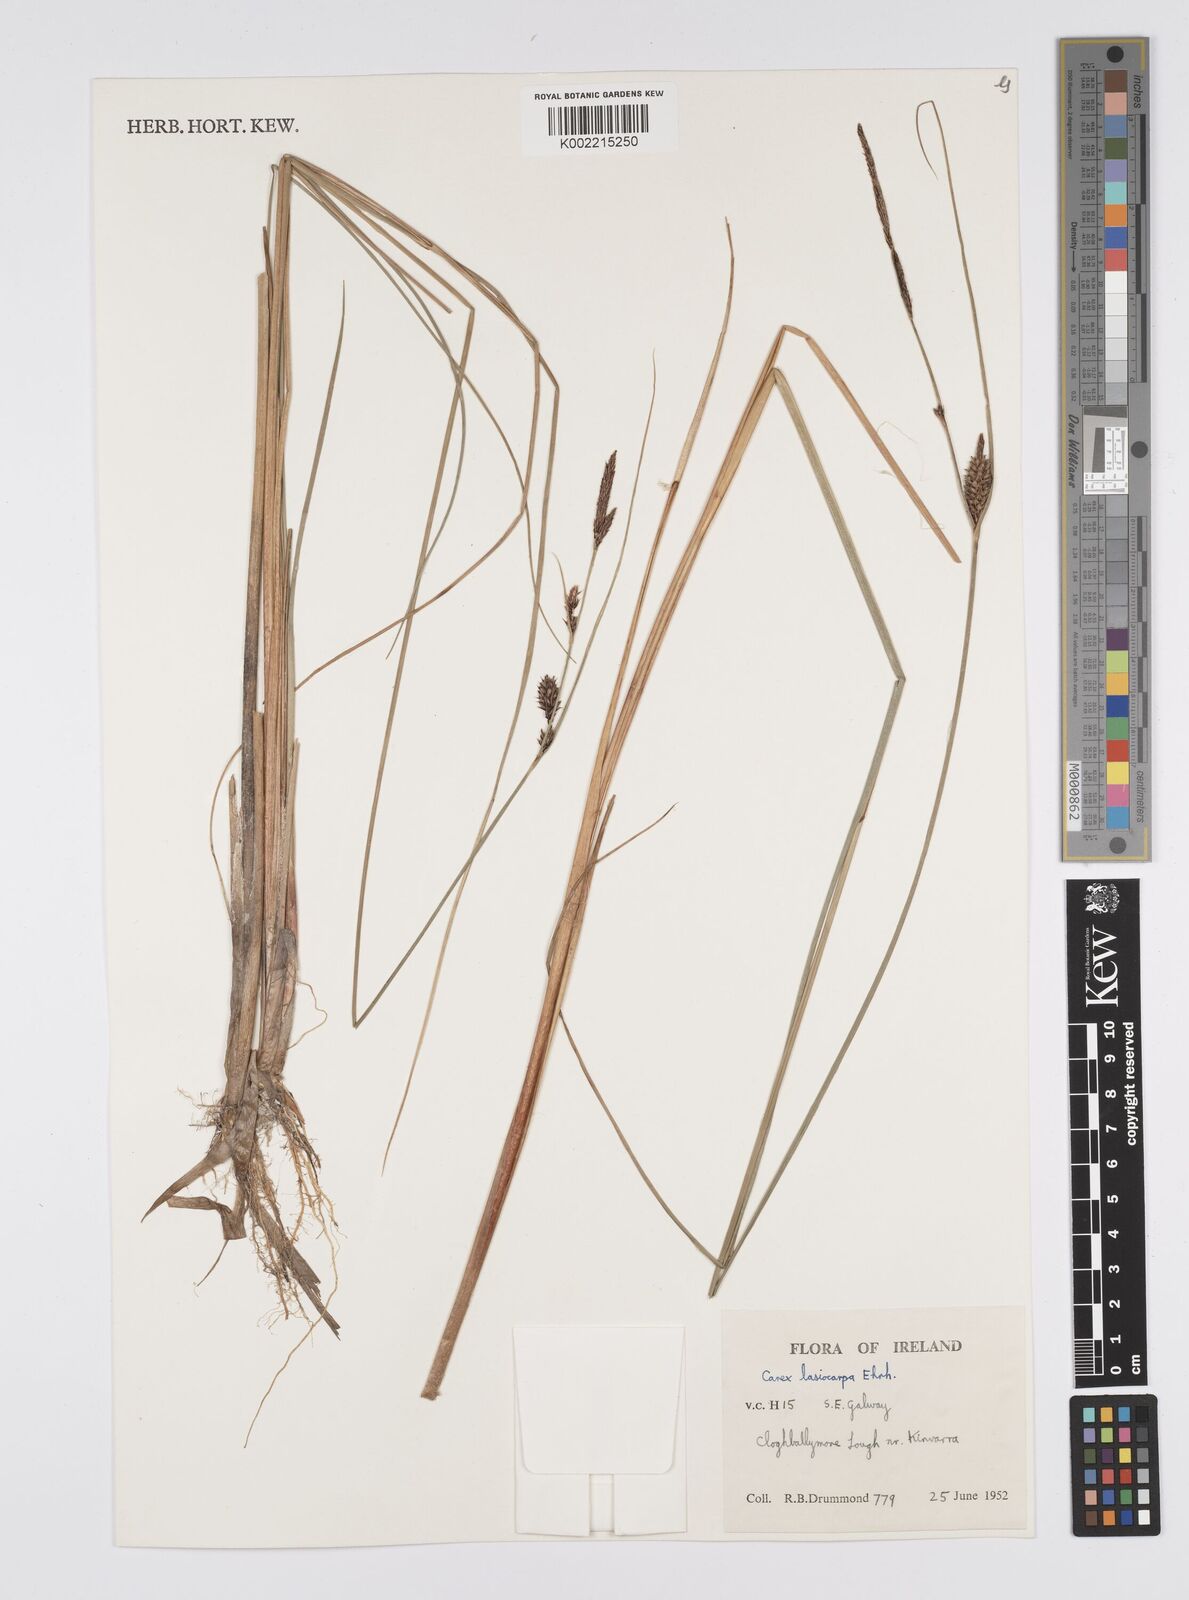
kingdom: Plantae
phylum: Tracheophyta
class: Liliopsida
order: Poales
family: Cyperaceae
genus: Carex
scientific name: Carex lasiocarpa
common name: Slender sedge
